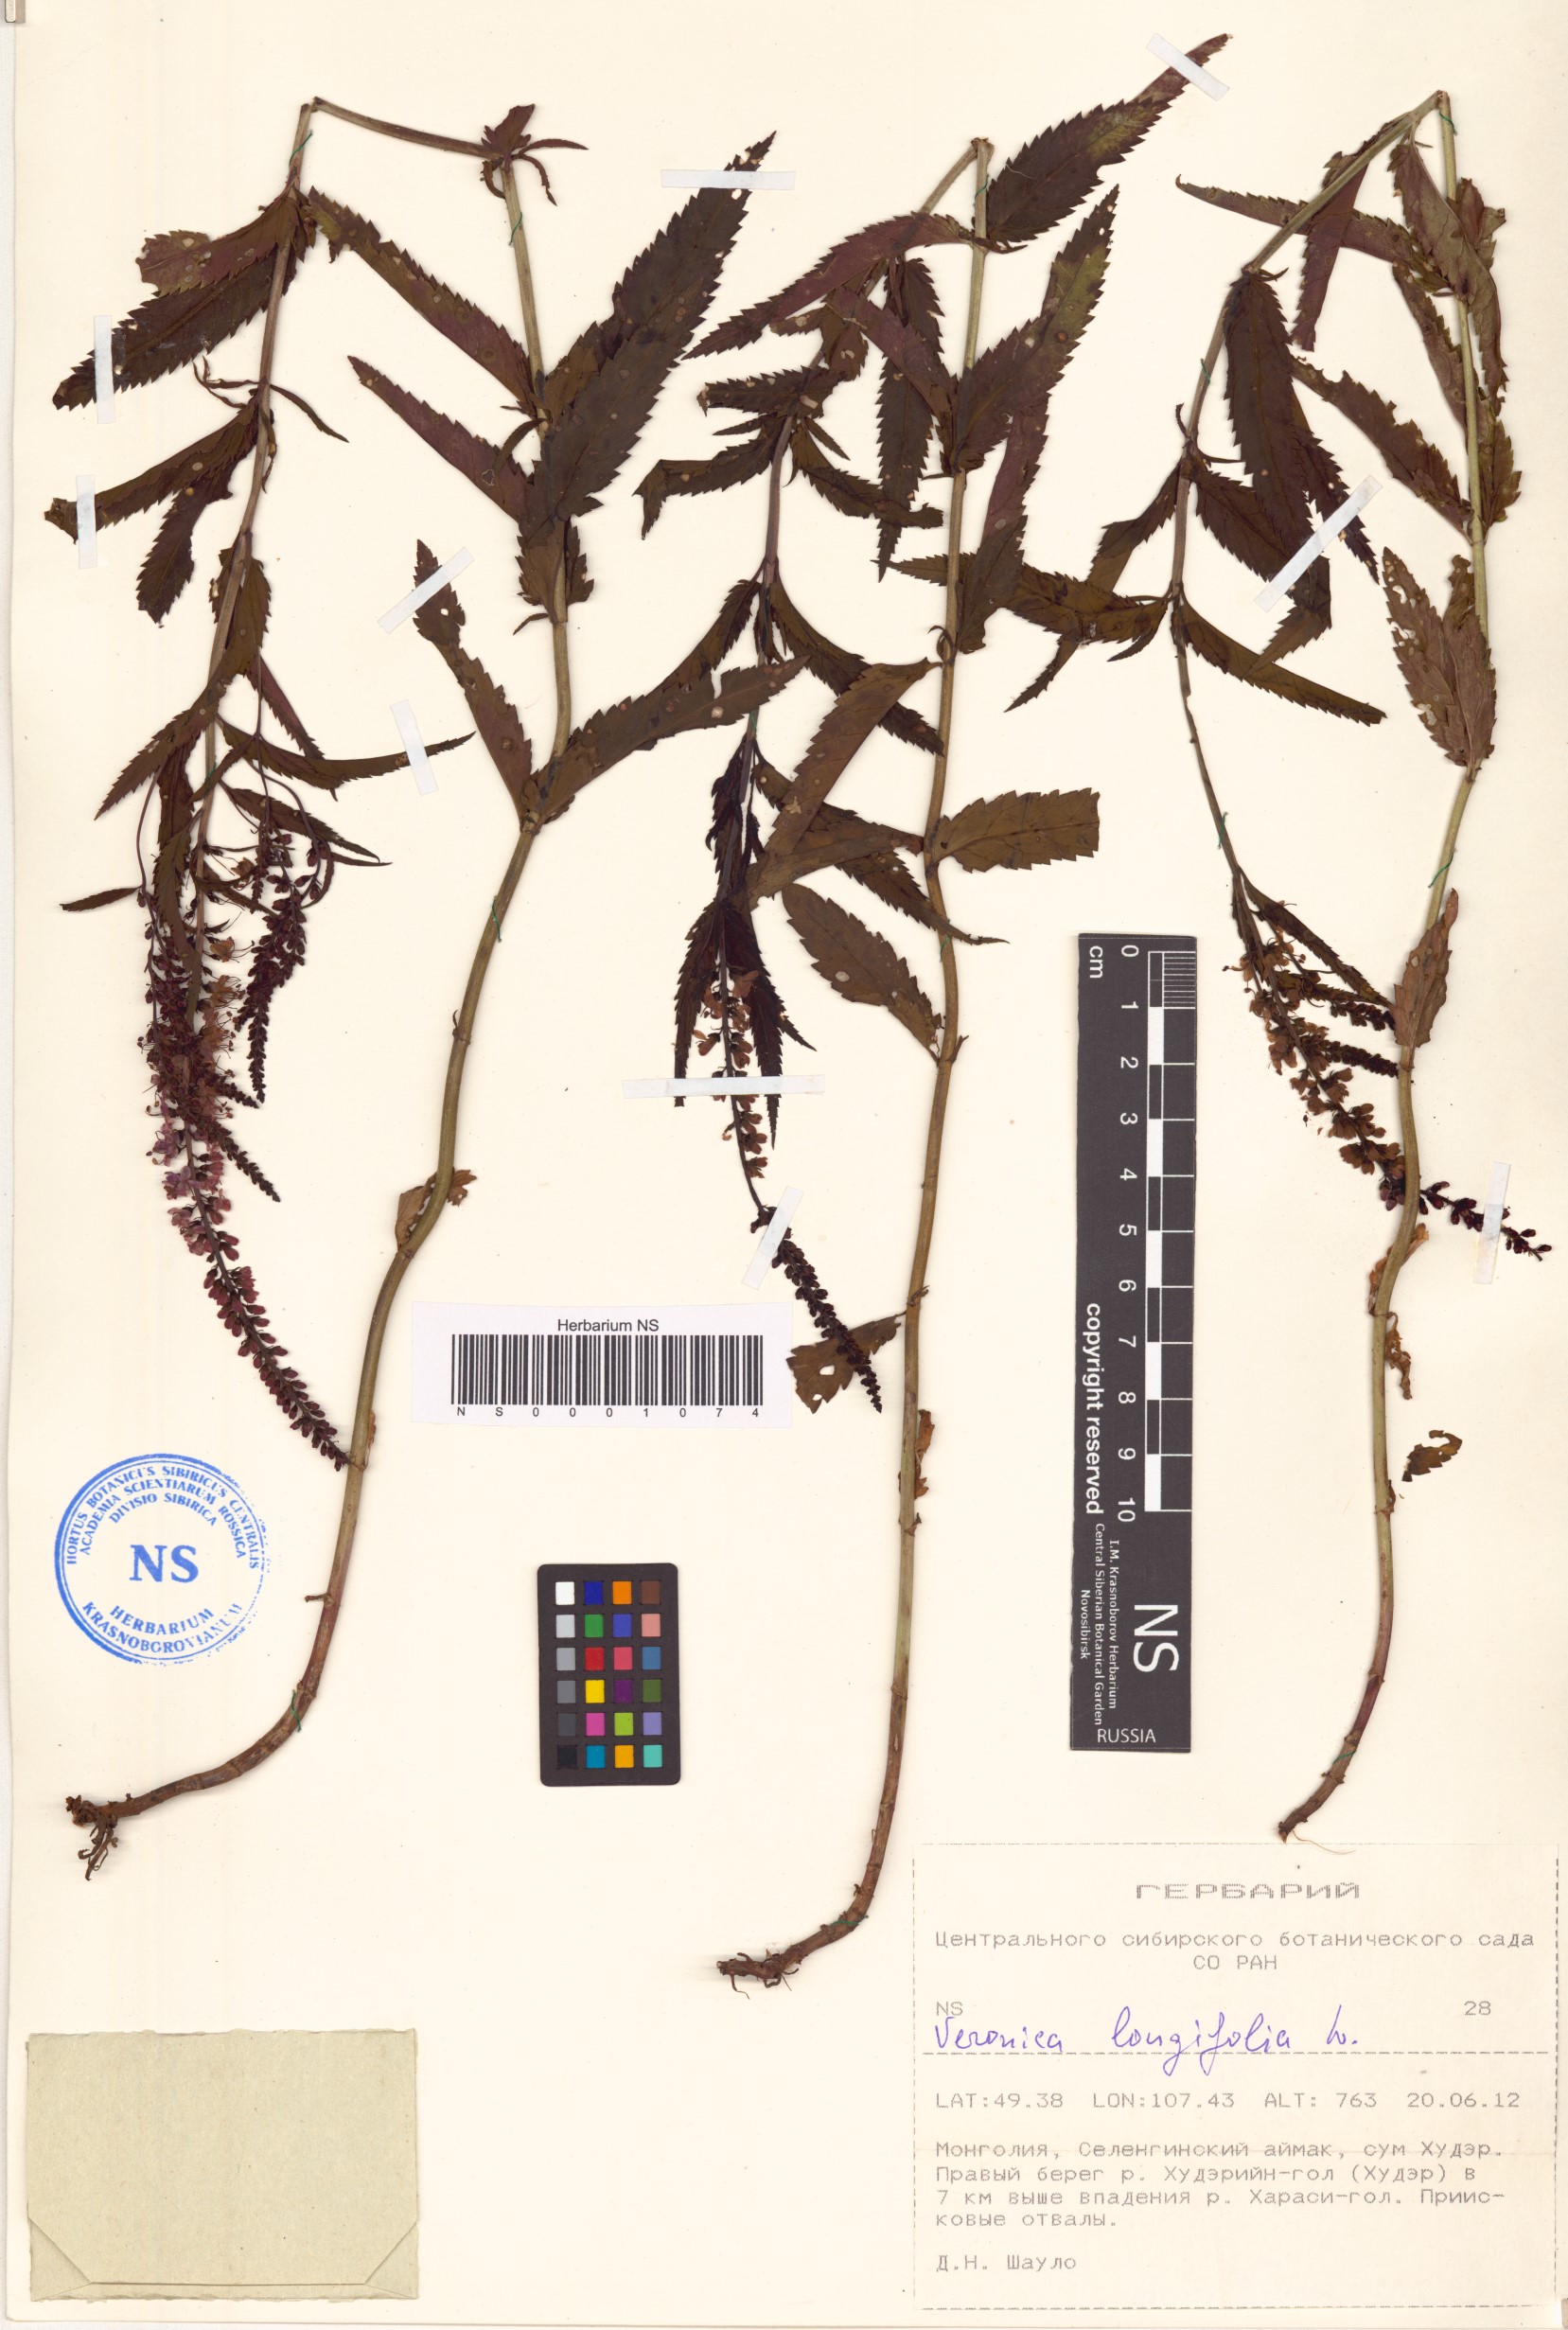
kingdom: Plantae
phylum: Tracheophyta
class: Magnoliopsida
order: Lamiales
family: Plantaginaceae
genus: Veronica
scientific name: Veronica longifolia
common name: Garden speedwell
